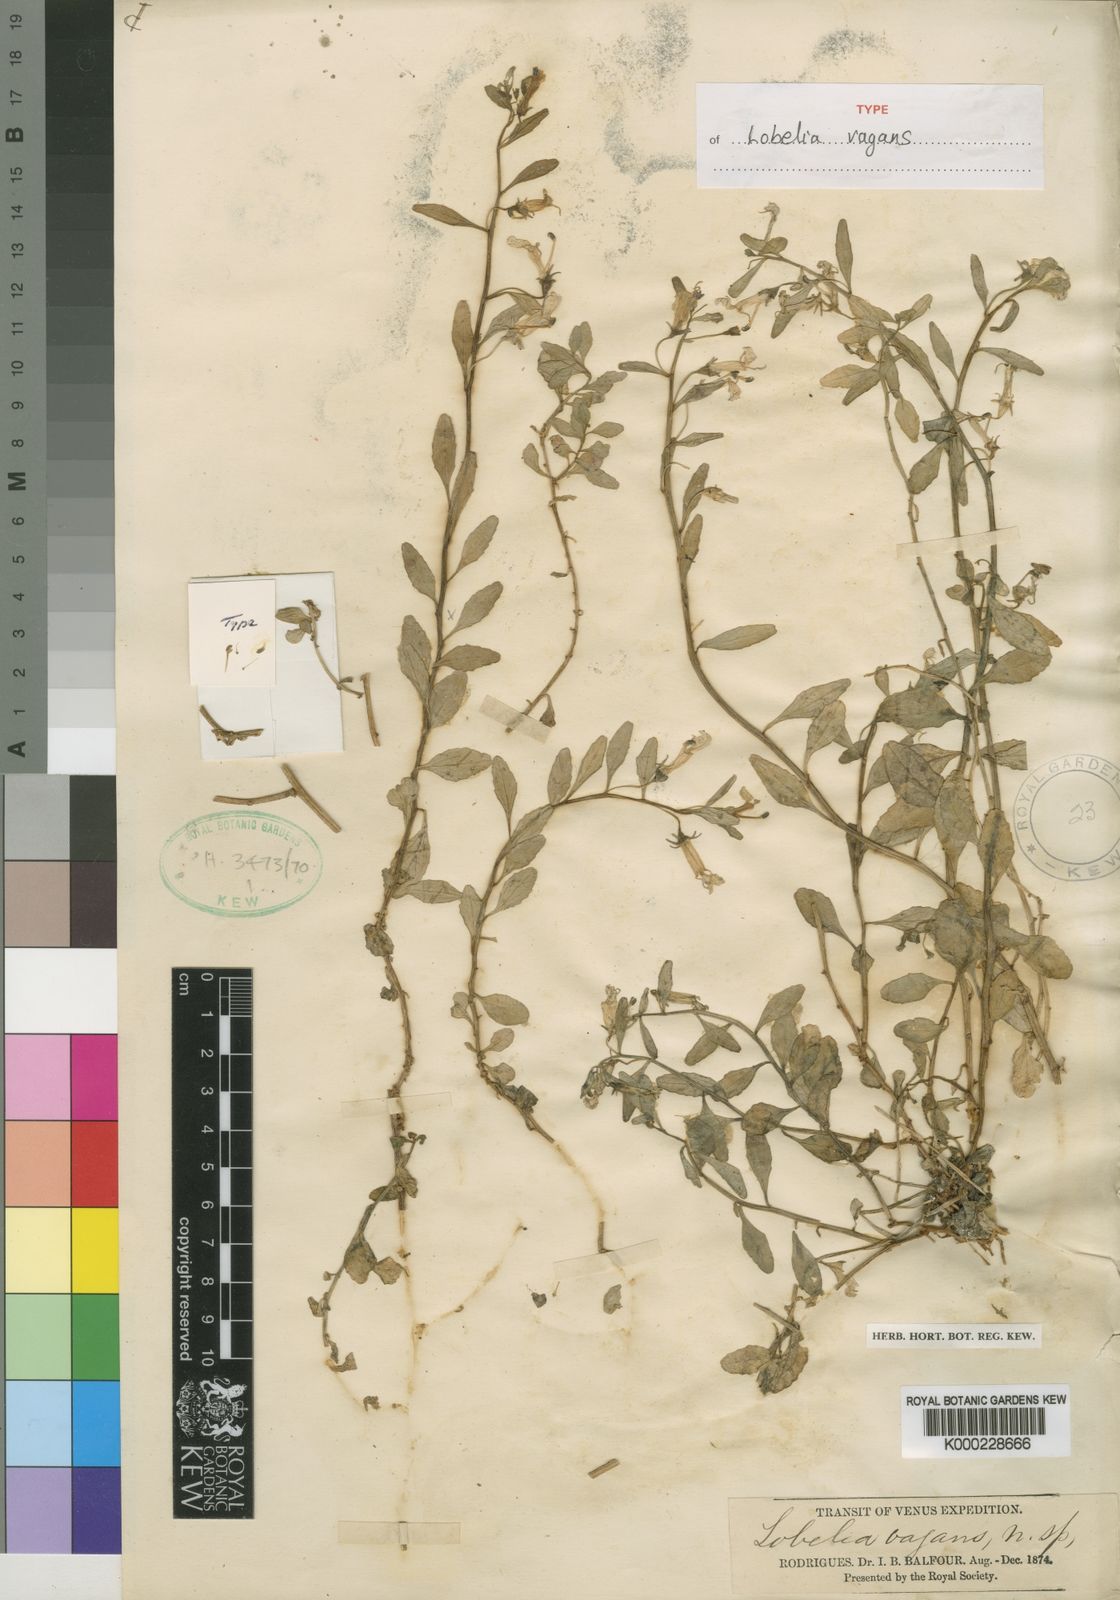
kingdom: Plantae
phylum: Tracheophyta
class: Magnoliopsida
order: Asterales
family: Campanulaceae
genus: Lobelia
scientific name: Lobelia vagans
